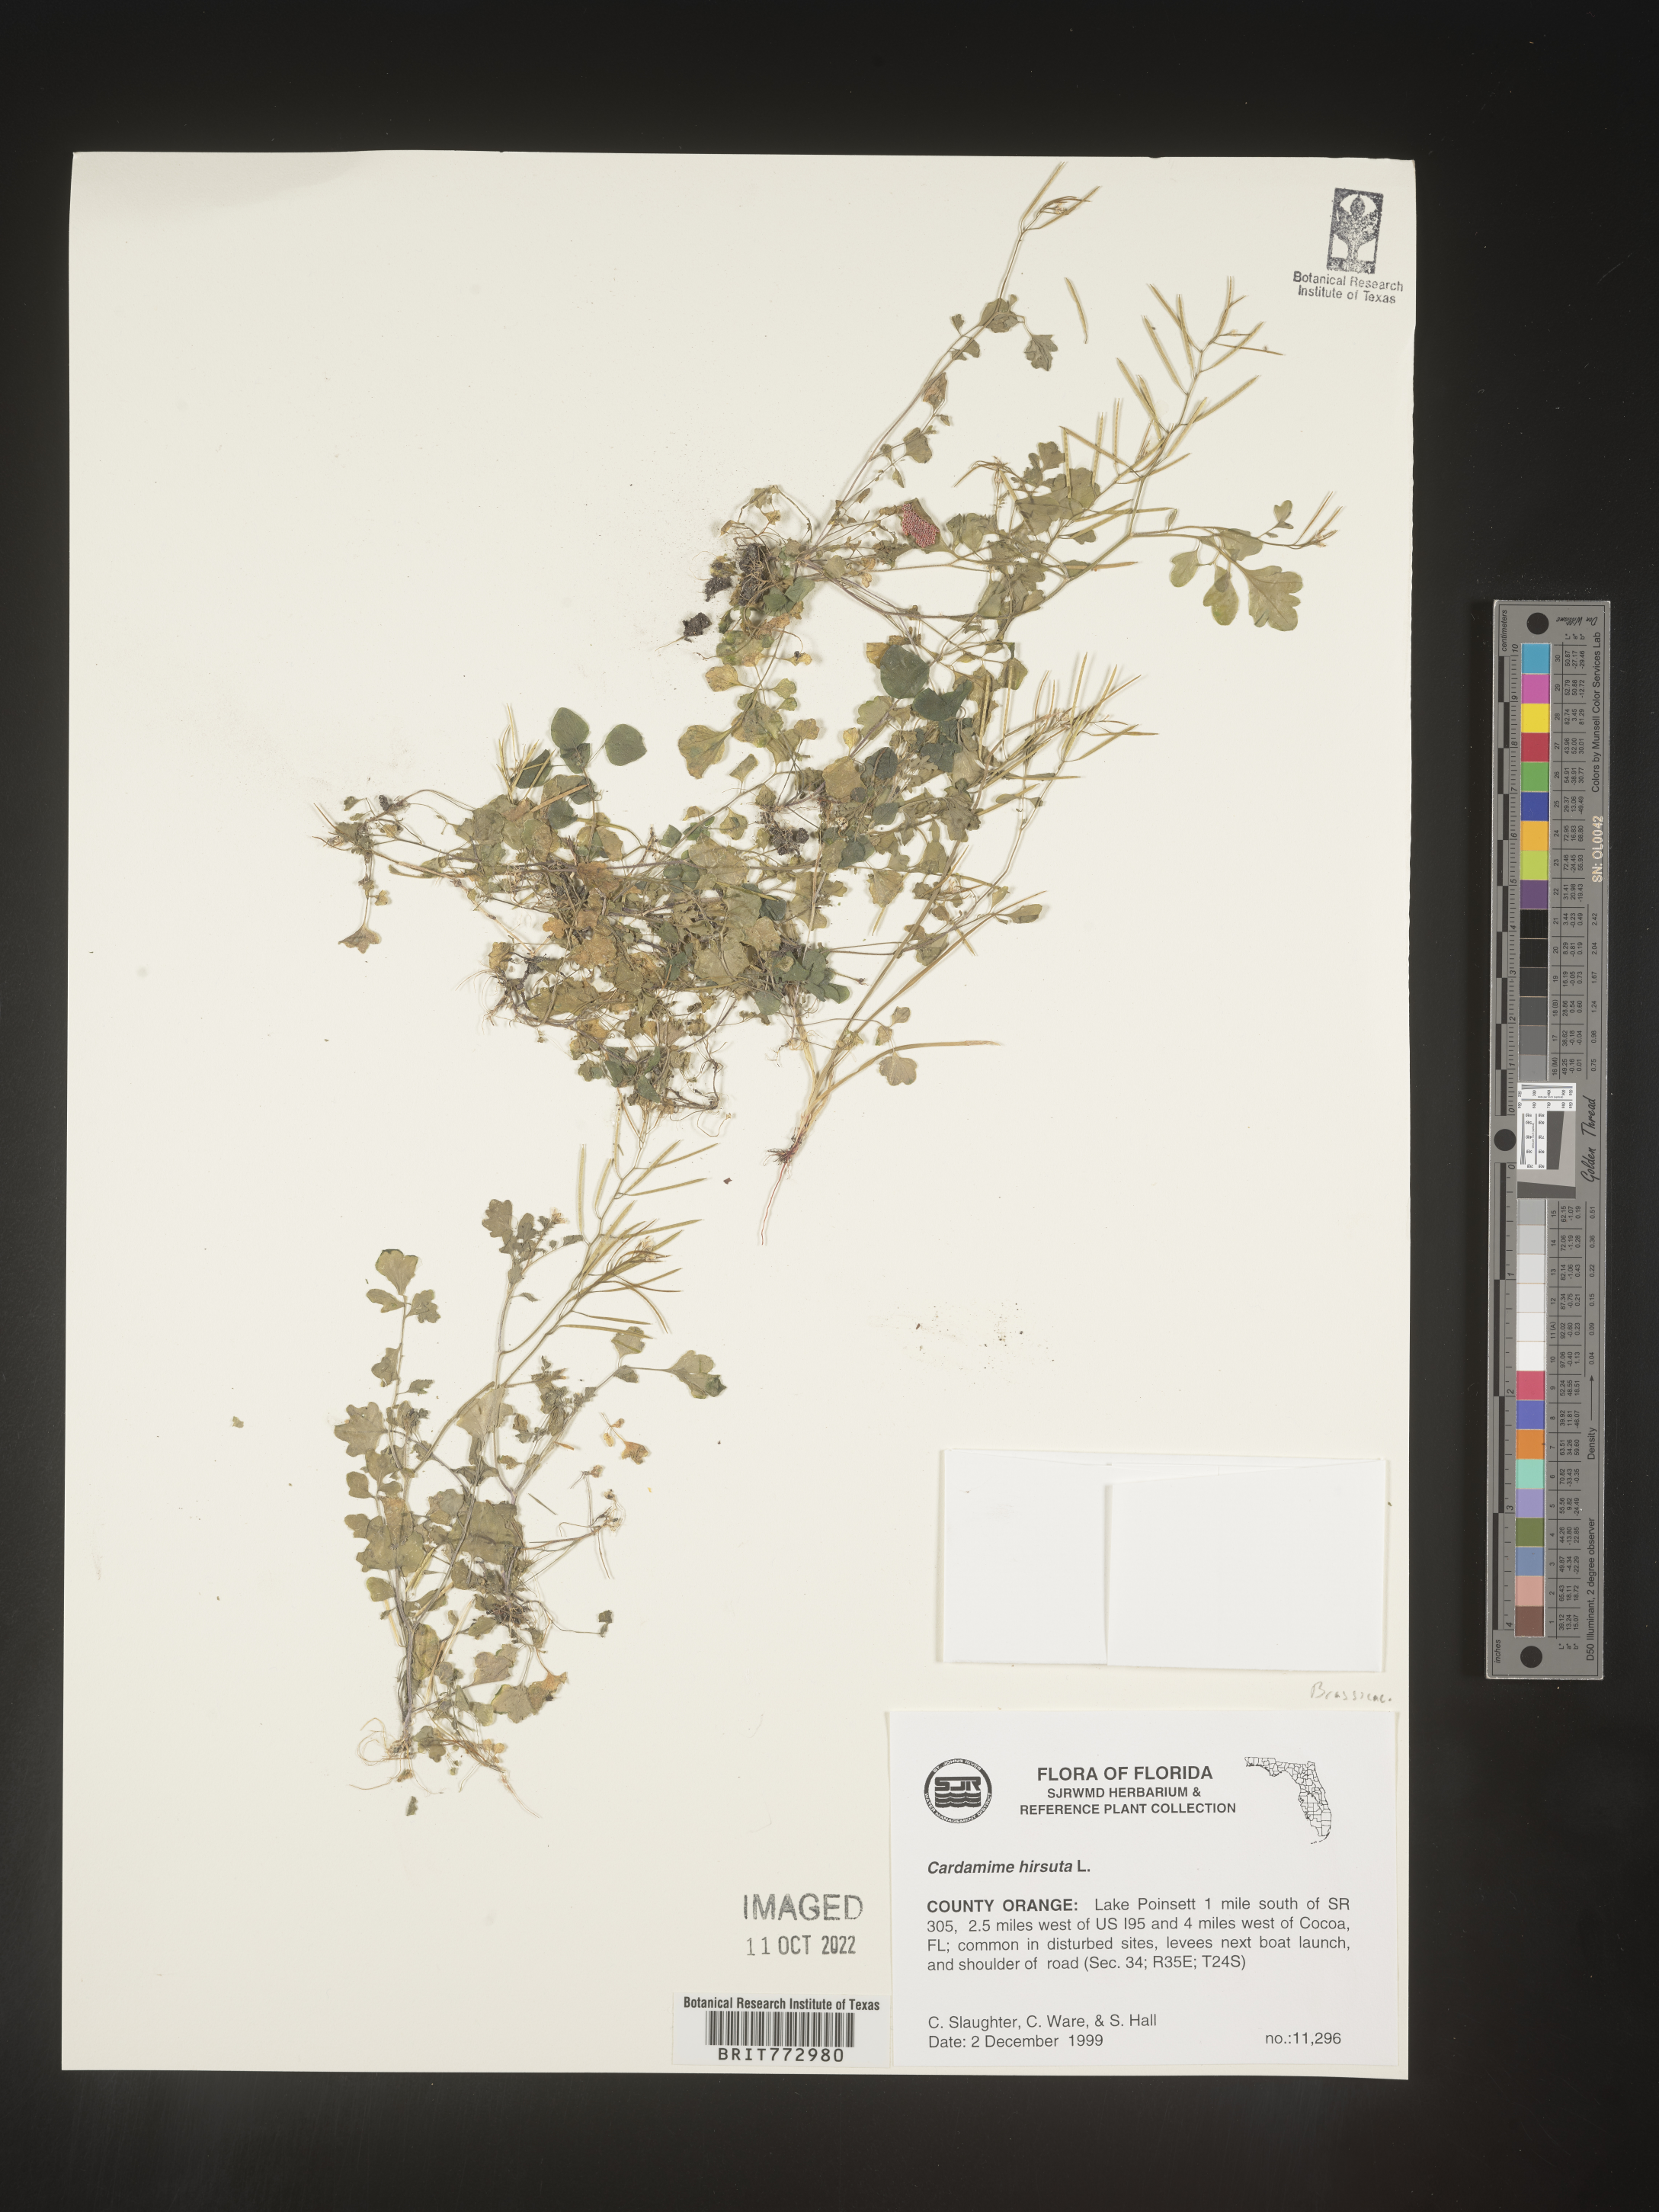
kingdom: Plantae
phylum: Tracheophyta
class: Magnoliopsida
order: Brassicales
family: Brassicaceae
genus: Cardamine
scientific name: Cardamine hirsuta
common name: Hairy bittercress
